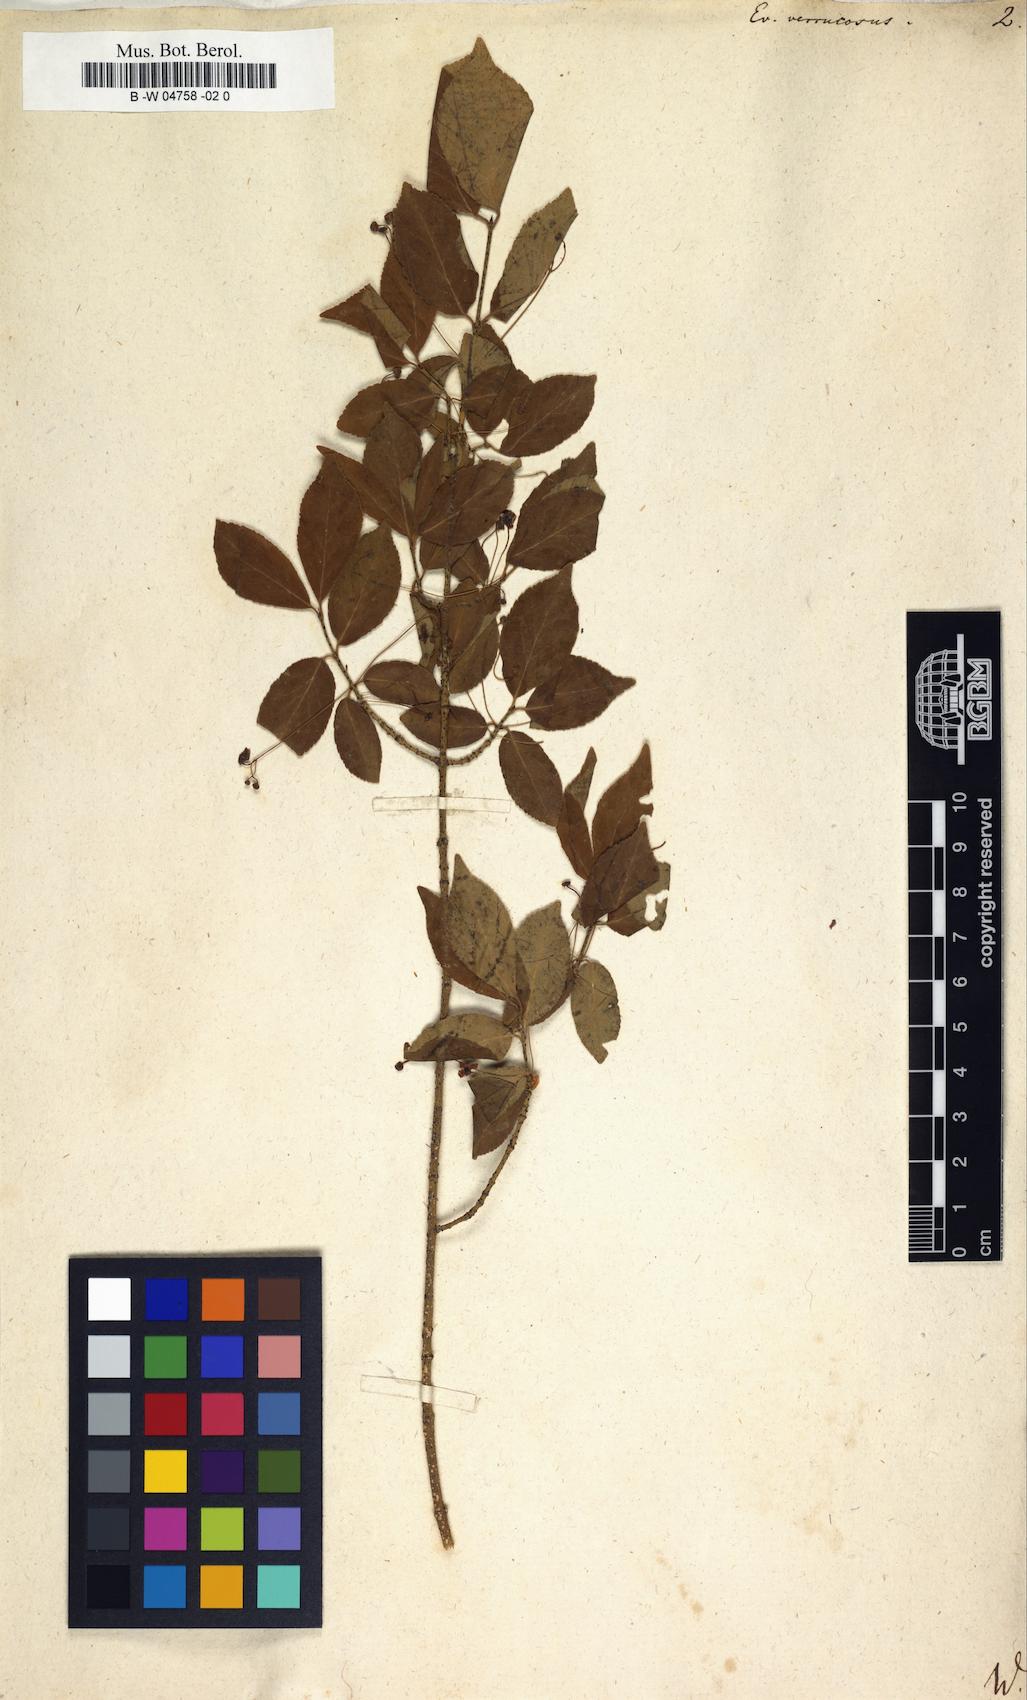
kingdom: Plantae
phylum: Tracheophyta
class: Magnoliopsida
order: Celastrales
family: Celastraceae
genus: Euonymus
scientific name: Euonymus verrucosus
